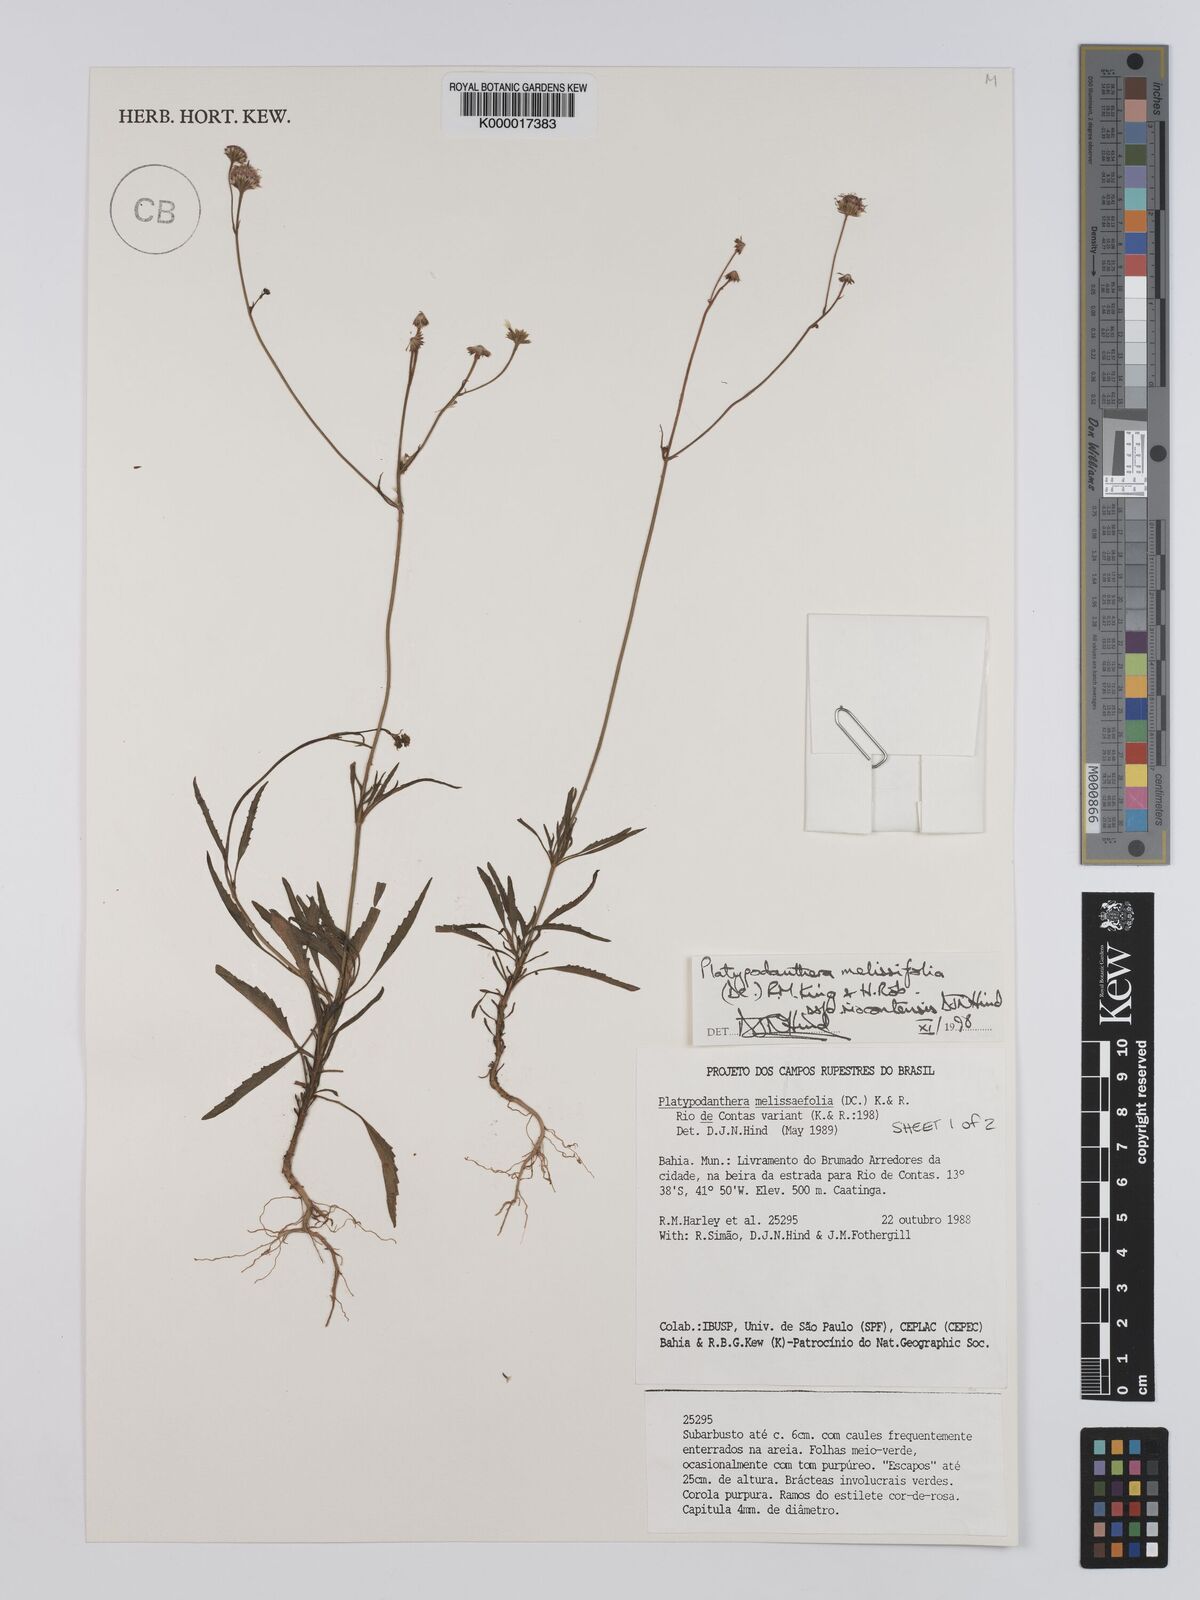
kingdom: Plantae
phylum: Tracheophyta
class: Magnoliopsida
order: Asterales
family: Asteraceae
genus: Platypodanthera
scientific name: Platypodanthera melissifolia
